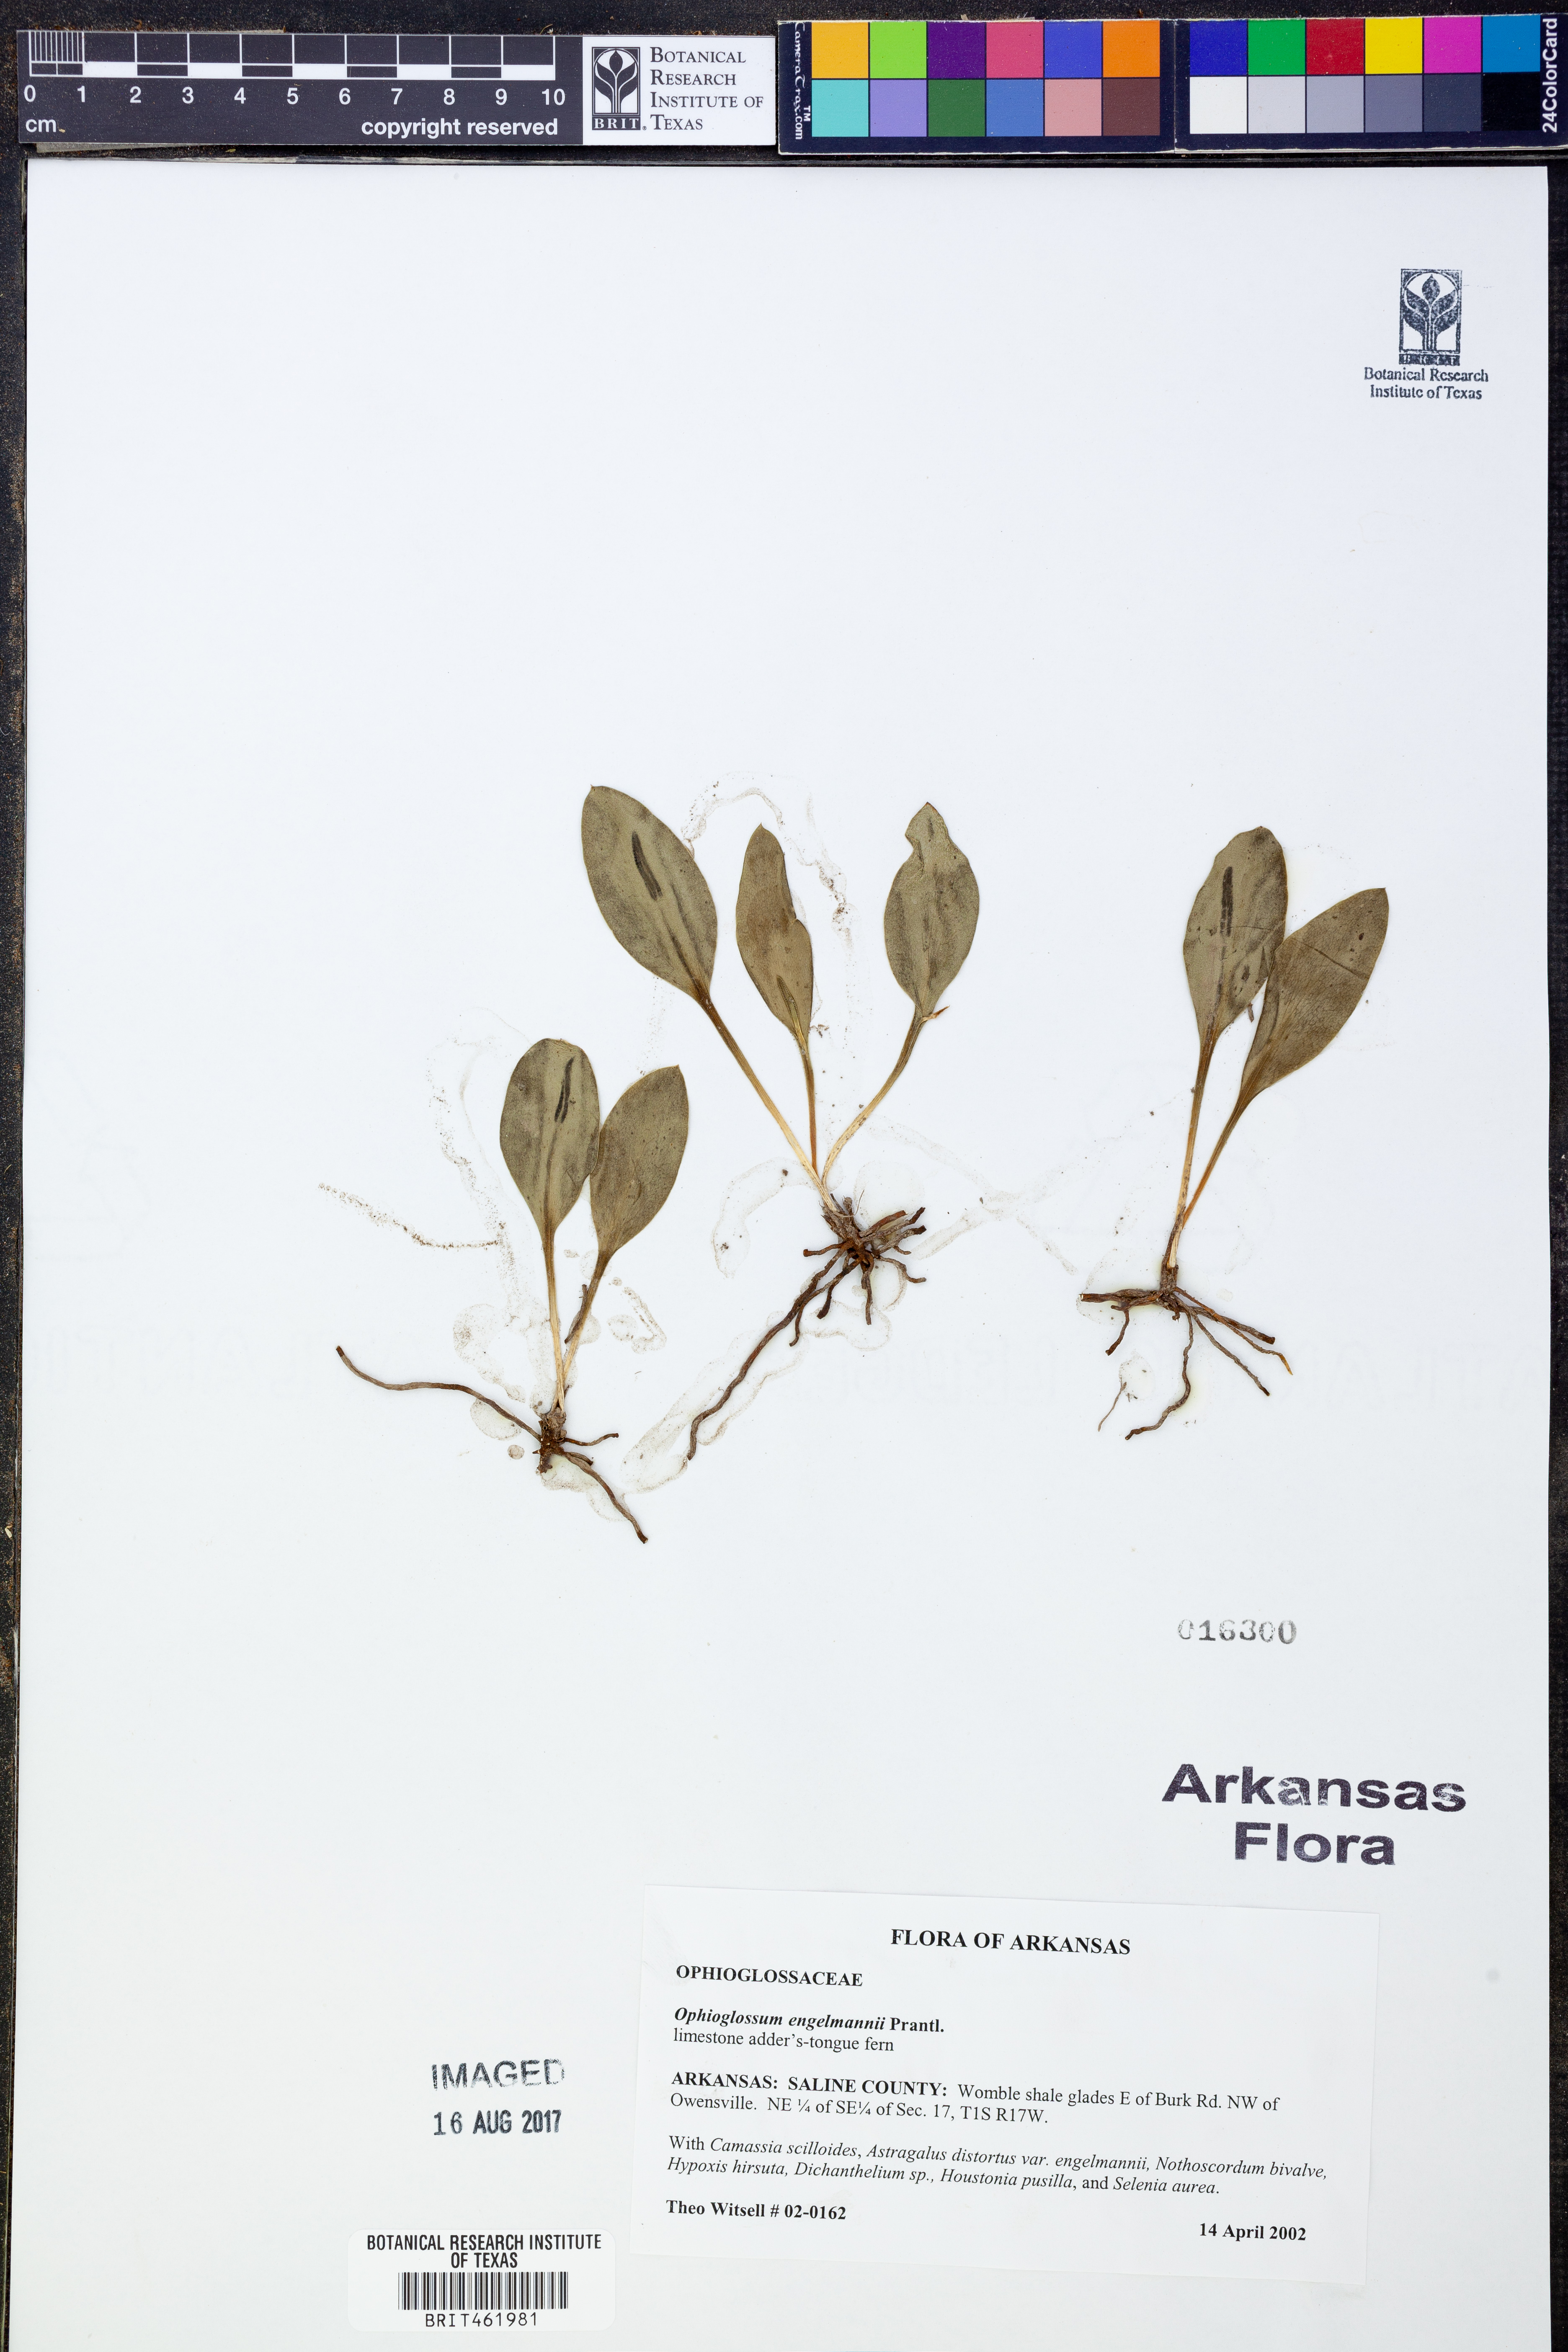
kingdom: Plantae
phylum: Tracheophyta
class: Polypodiopsida
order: Ophioglossales
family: Ophioglossaceae
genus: Ophioglossum
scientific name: Ophioglossum engelmannii
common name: Limestone adder's-tongue
